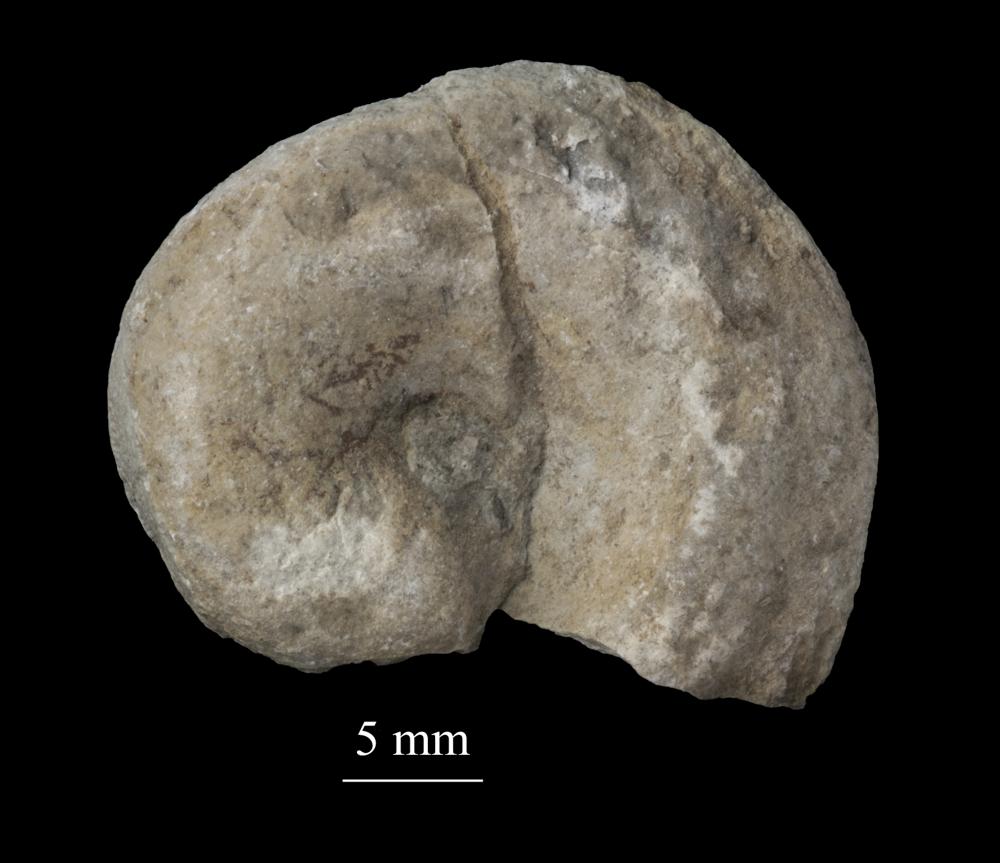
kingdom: Animalia
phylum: Mollusca
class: Gastropoda
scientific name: Gastropoda
